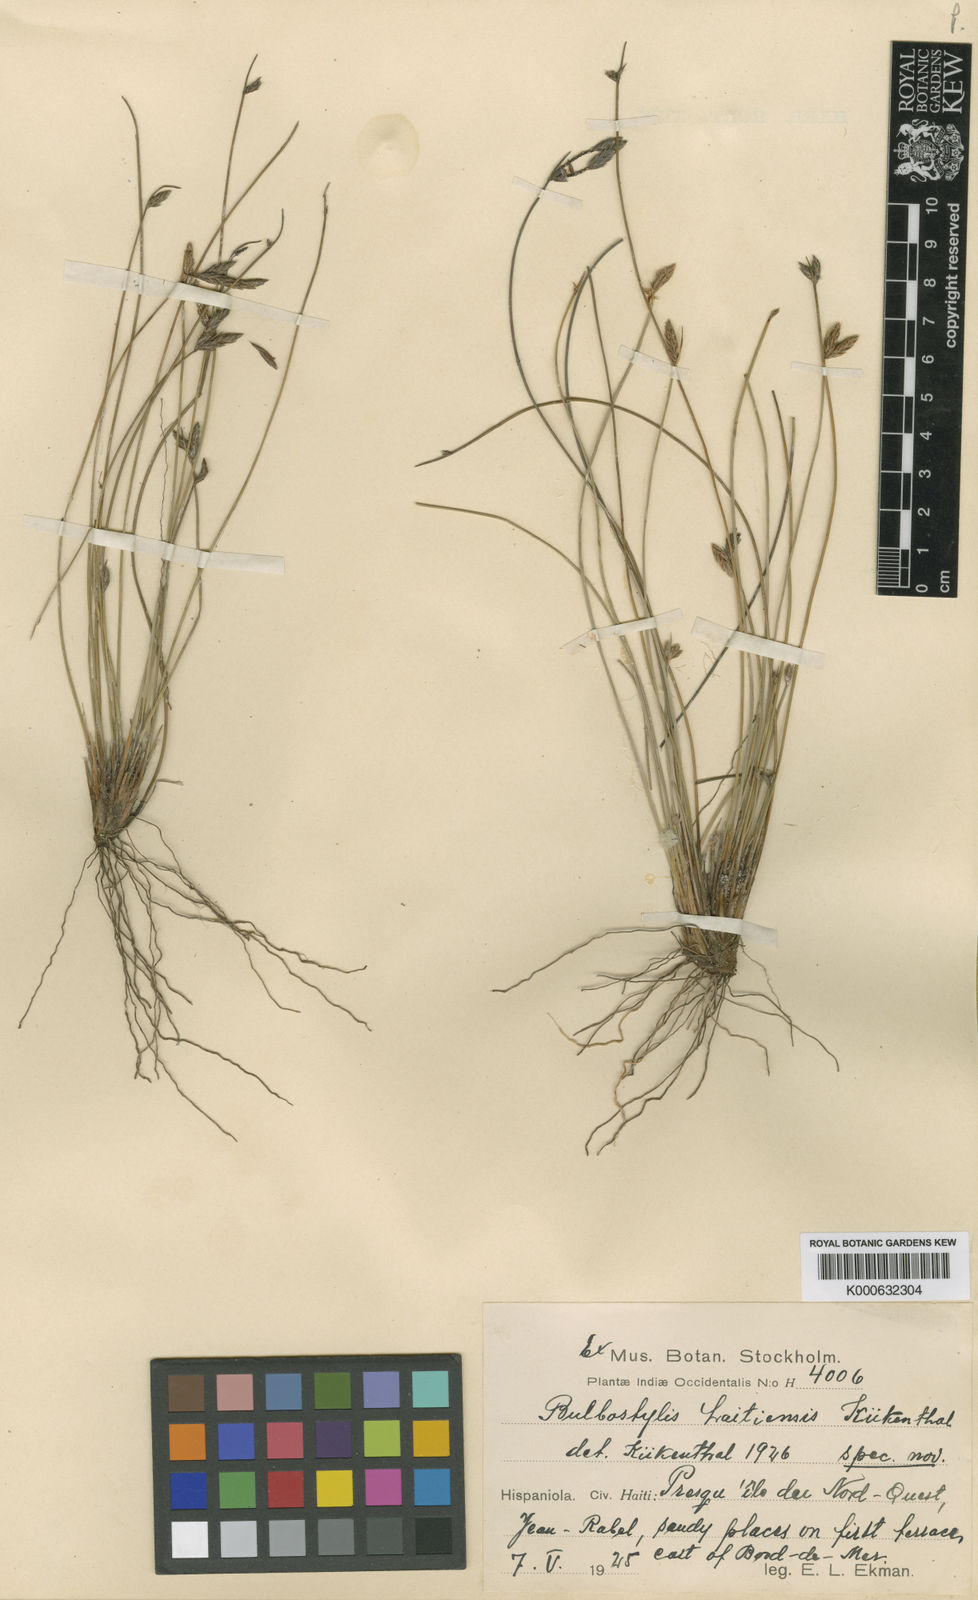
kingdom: Plantae
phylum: Tracheophyta
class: Liliopsida
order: Poales
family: Cyperaceae
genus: Bulbostylis
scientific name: Bulbostylis
